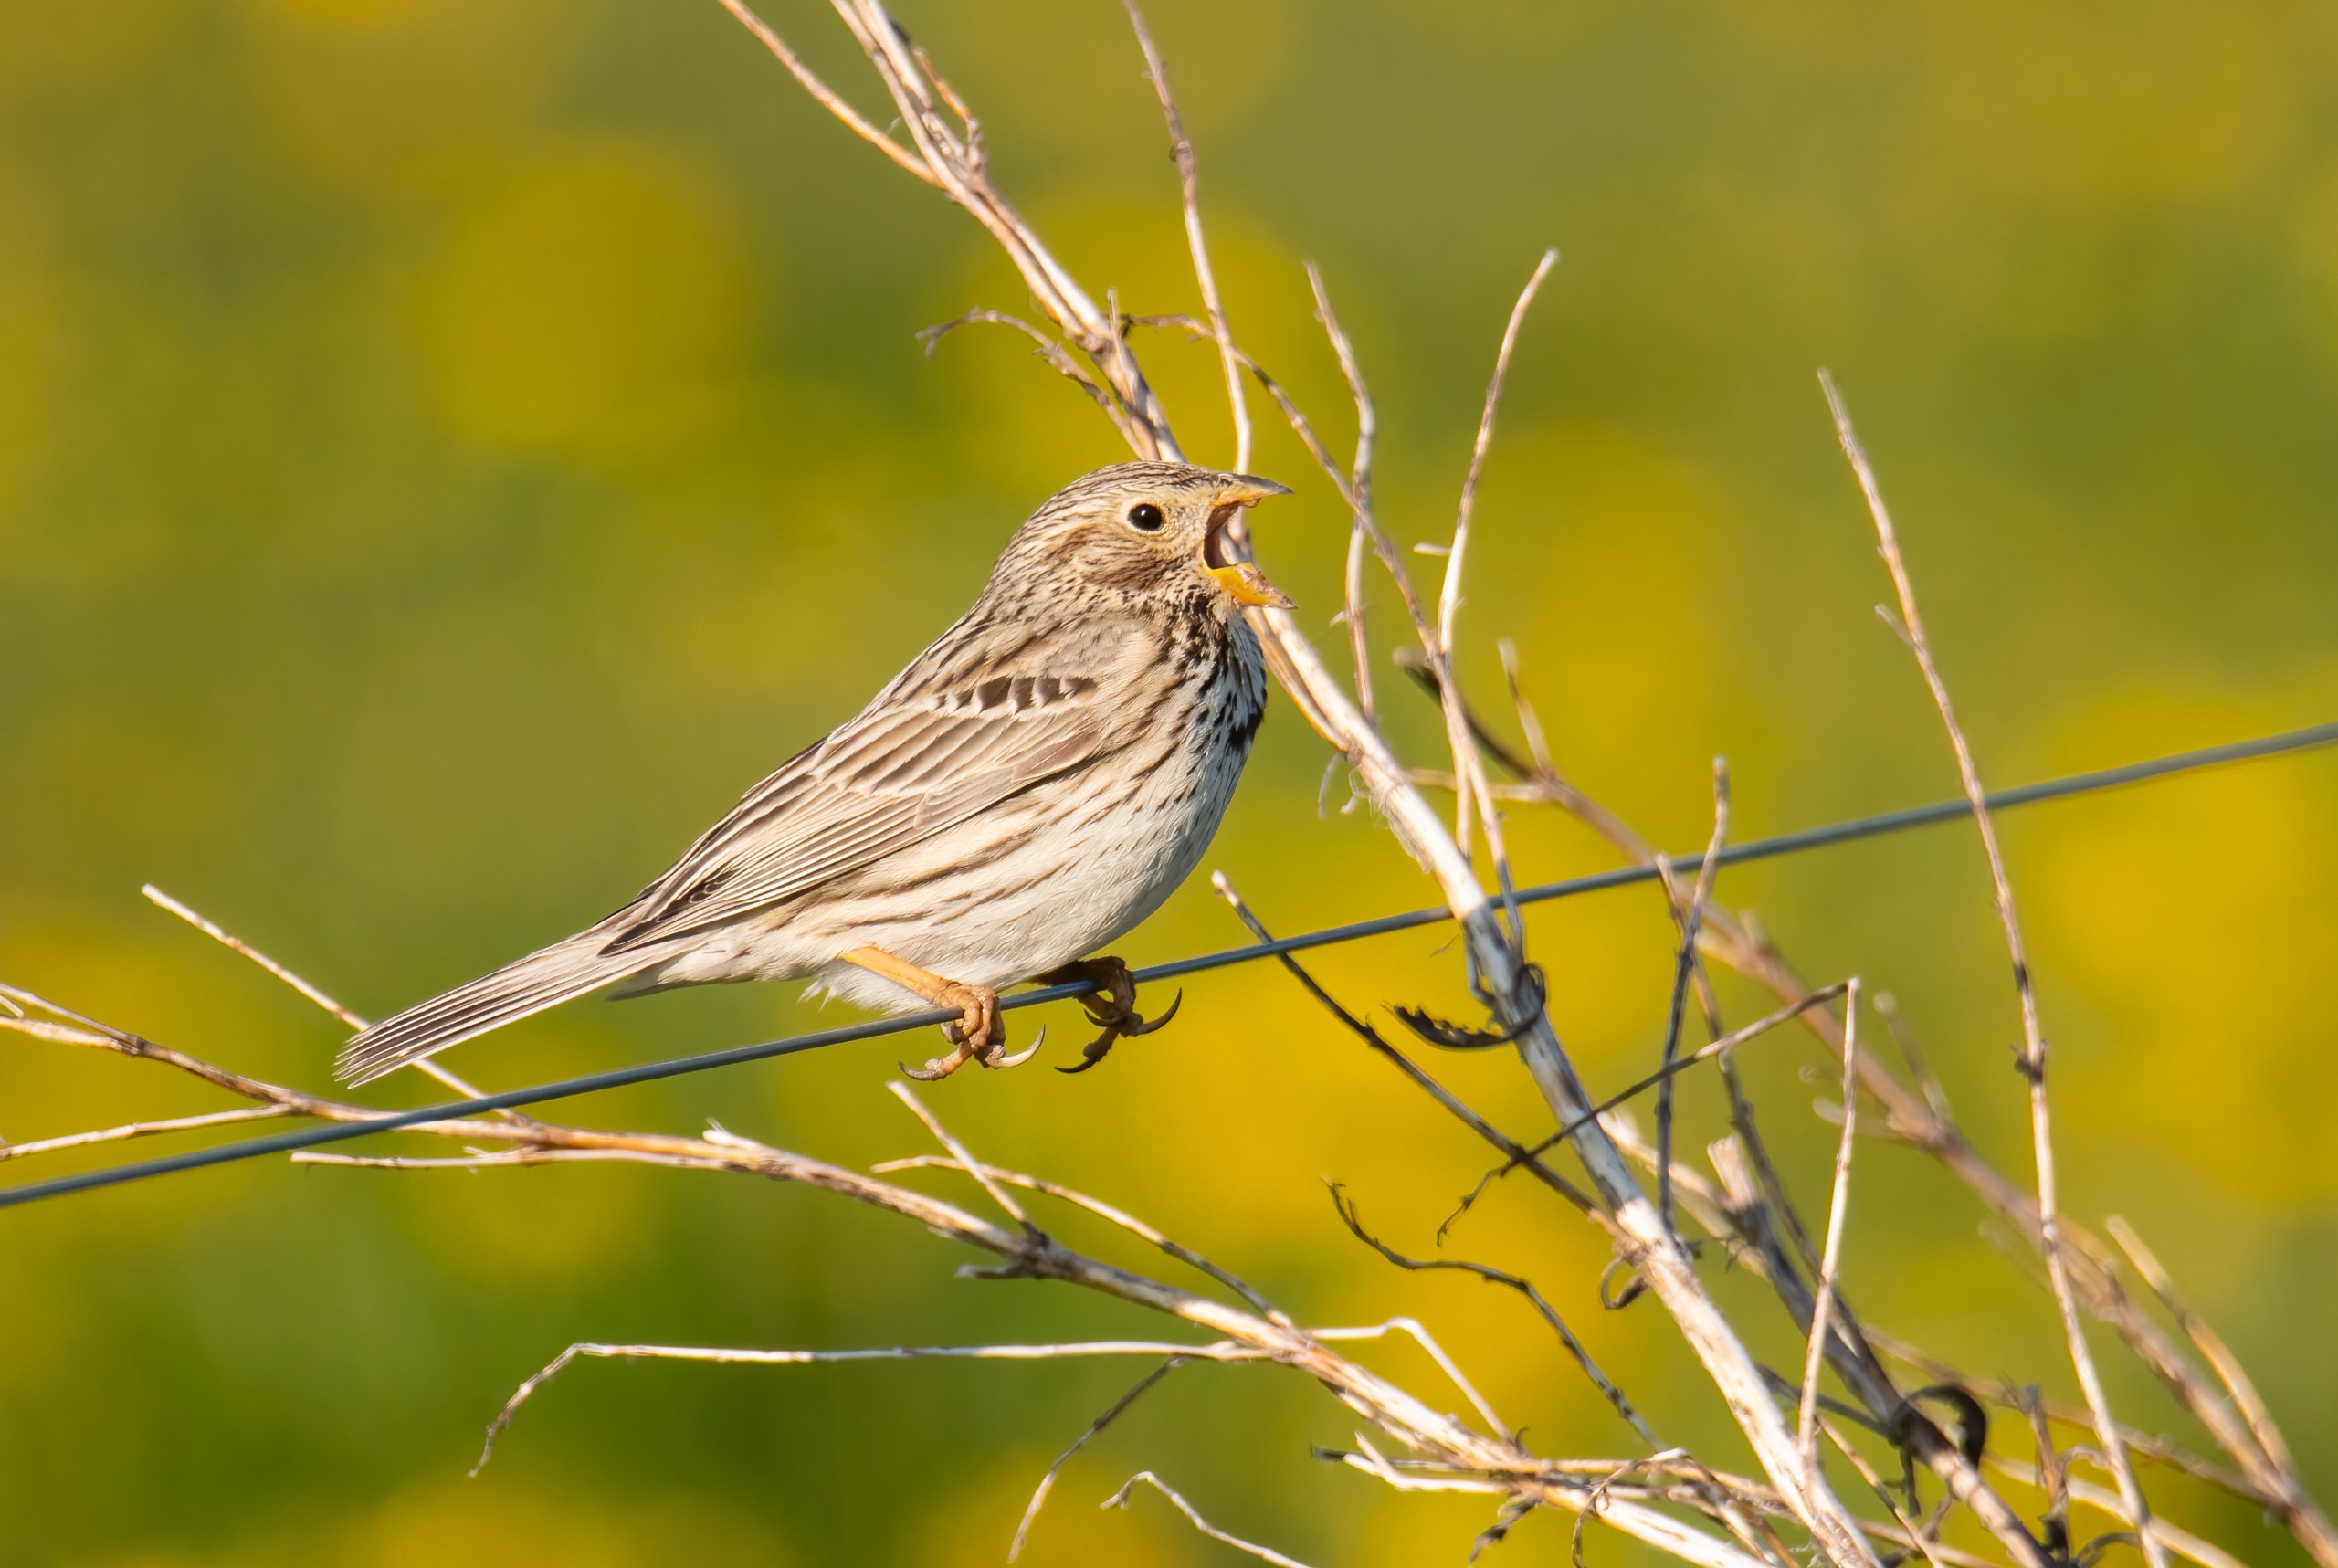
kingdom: Animalia
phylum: Chordata
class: Aves
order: Passeriformes
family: Emberizidae
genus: Emberiza
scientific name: Emberiza calandra
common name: Bomlærke
